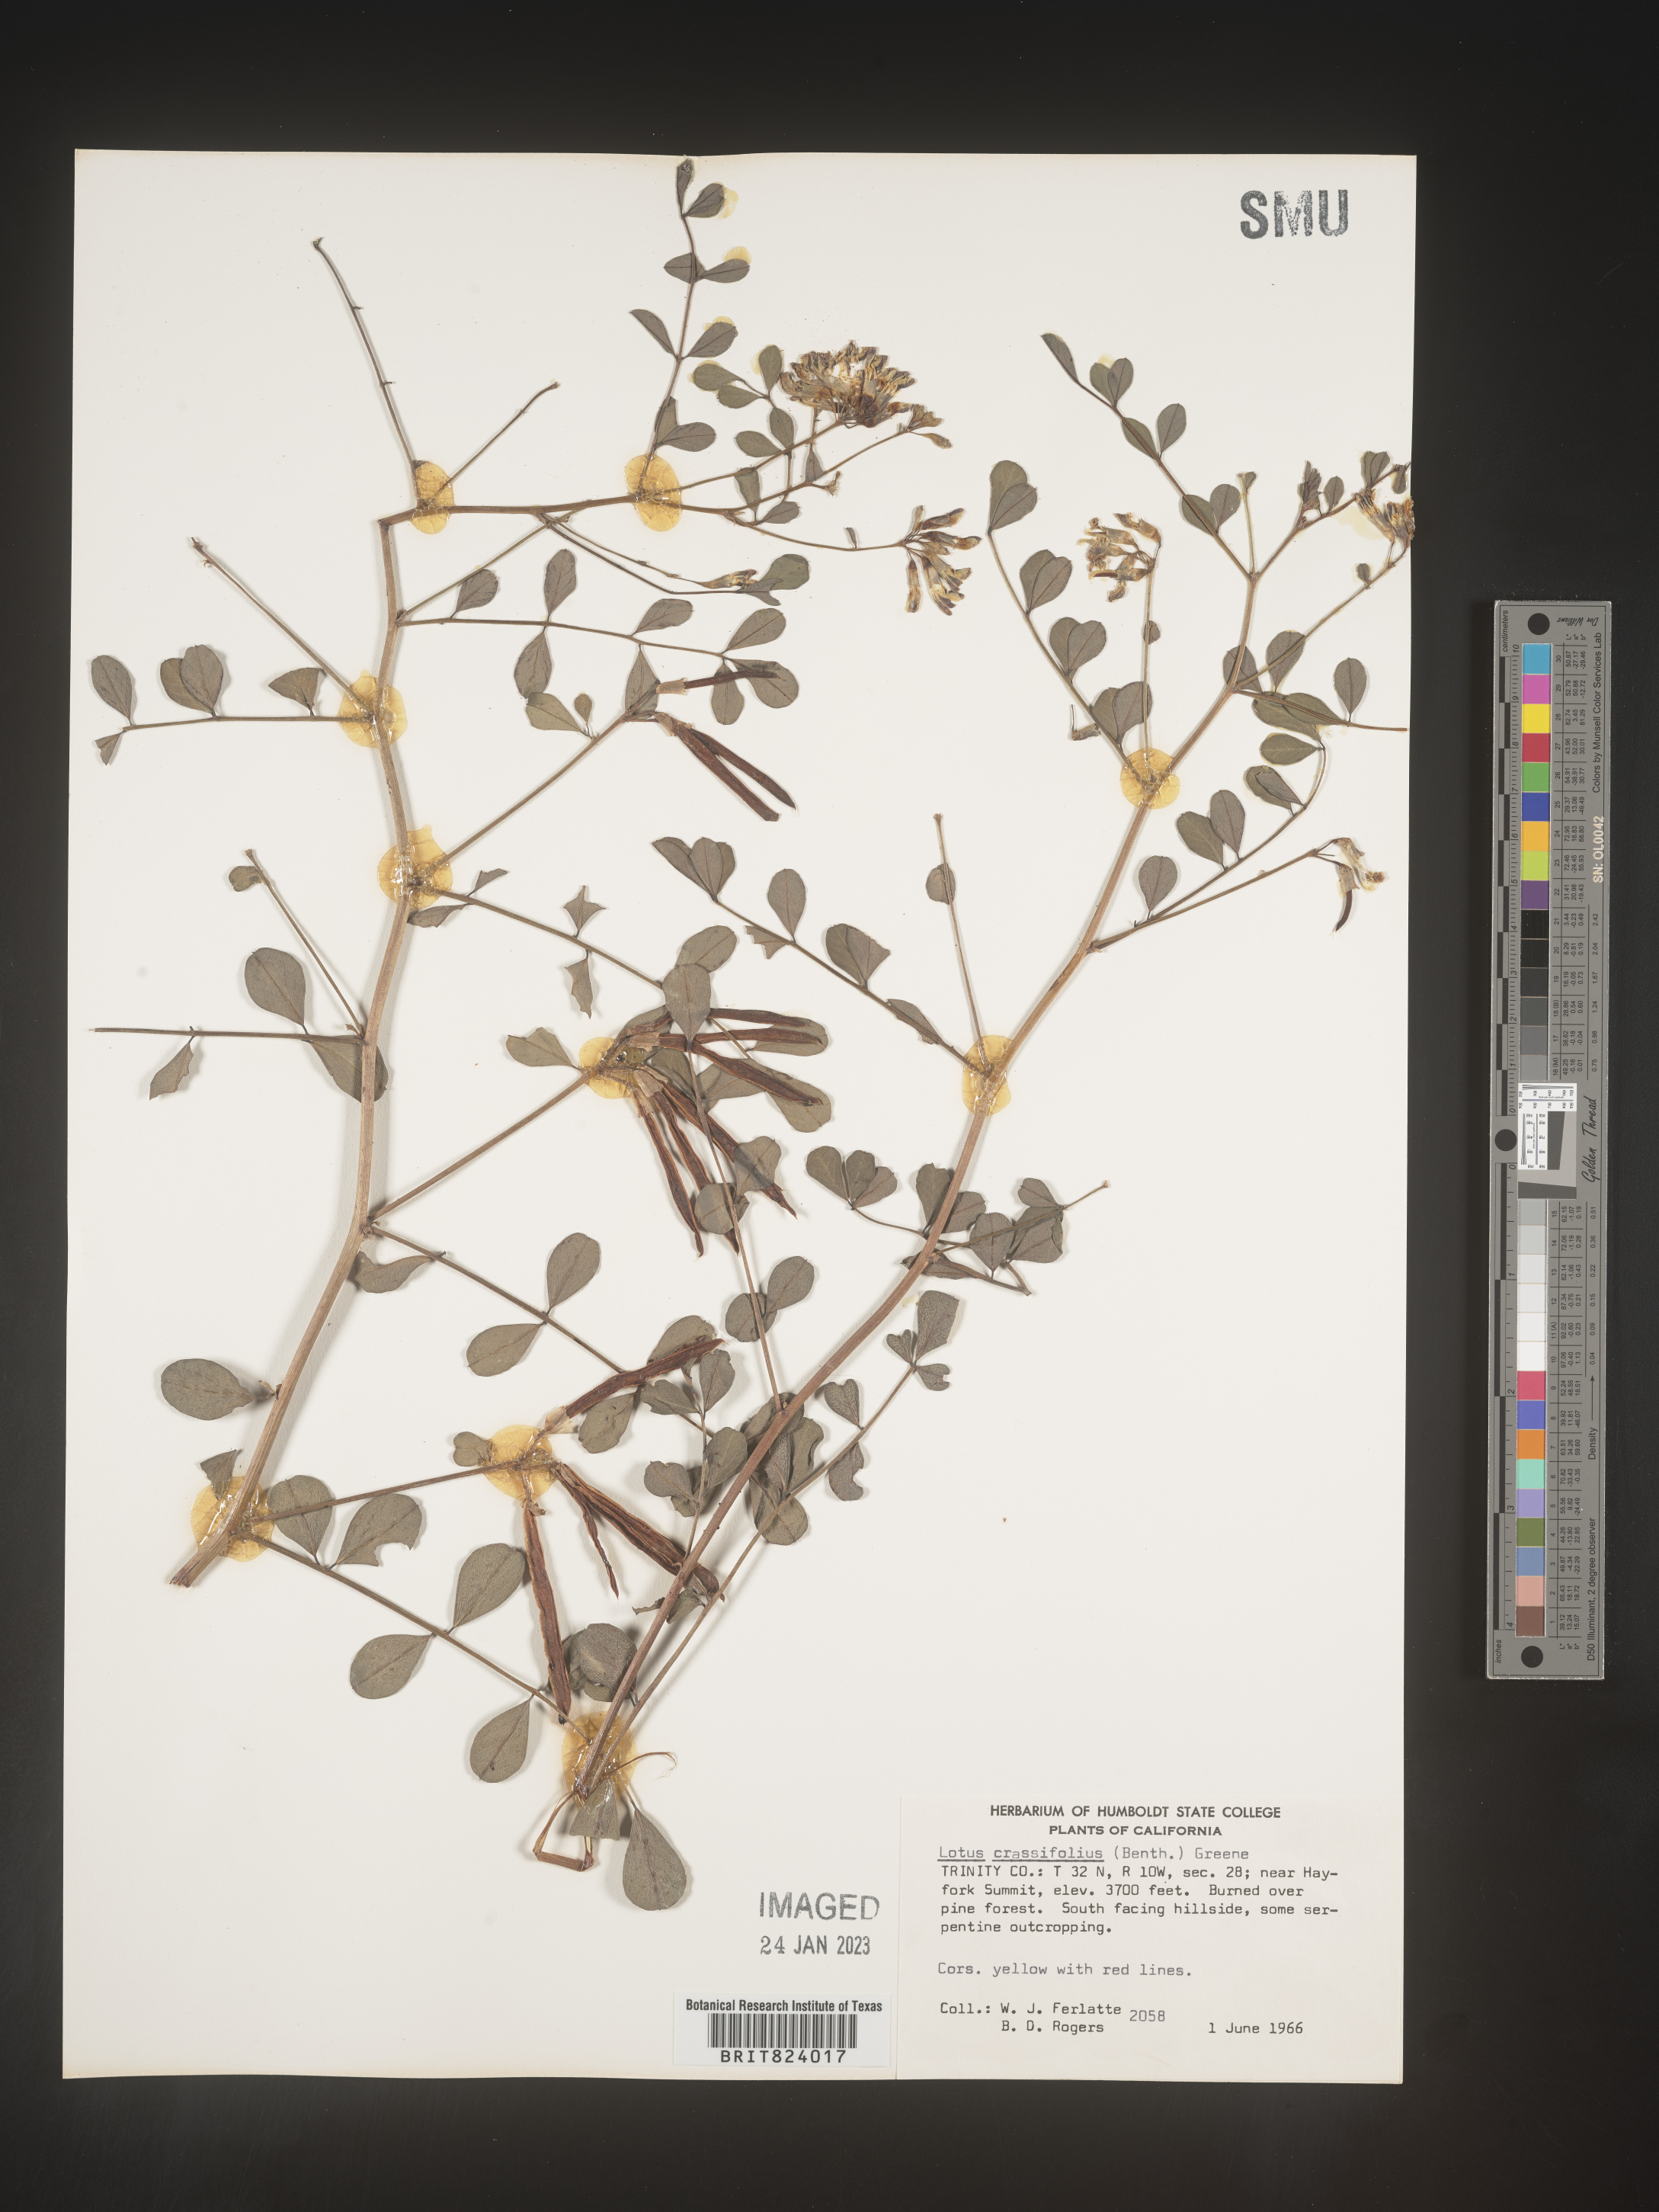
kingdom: Plantae
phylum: Tracheophyta
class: Magnoliopsida
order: Fabales
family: Fabaceae
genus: Hosackia
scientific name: Hosackia crassifolia
